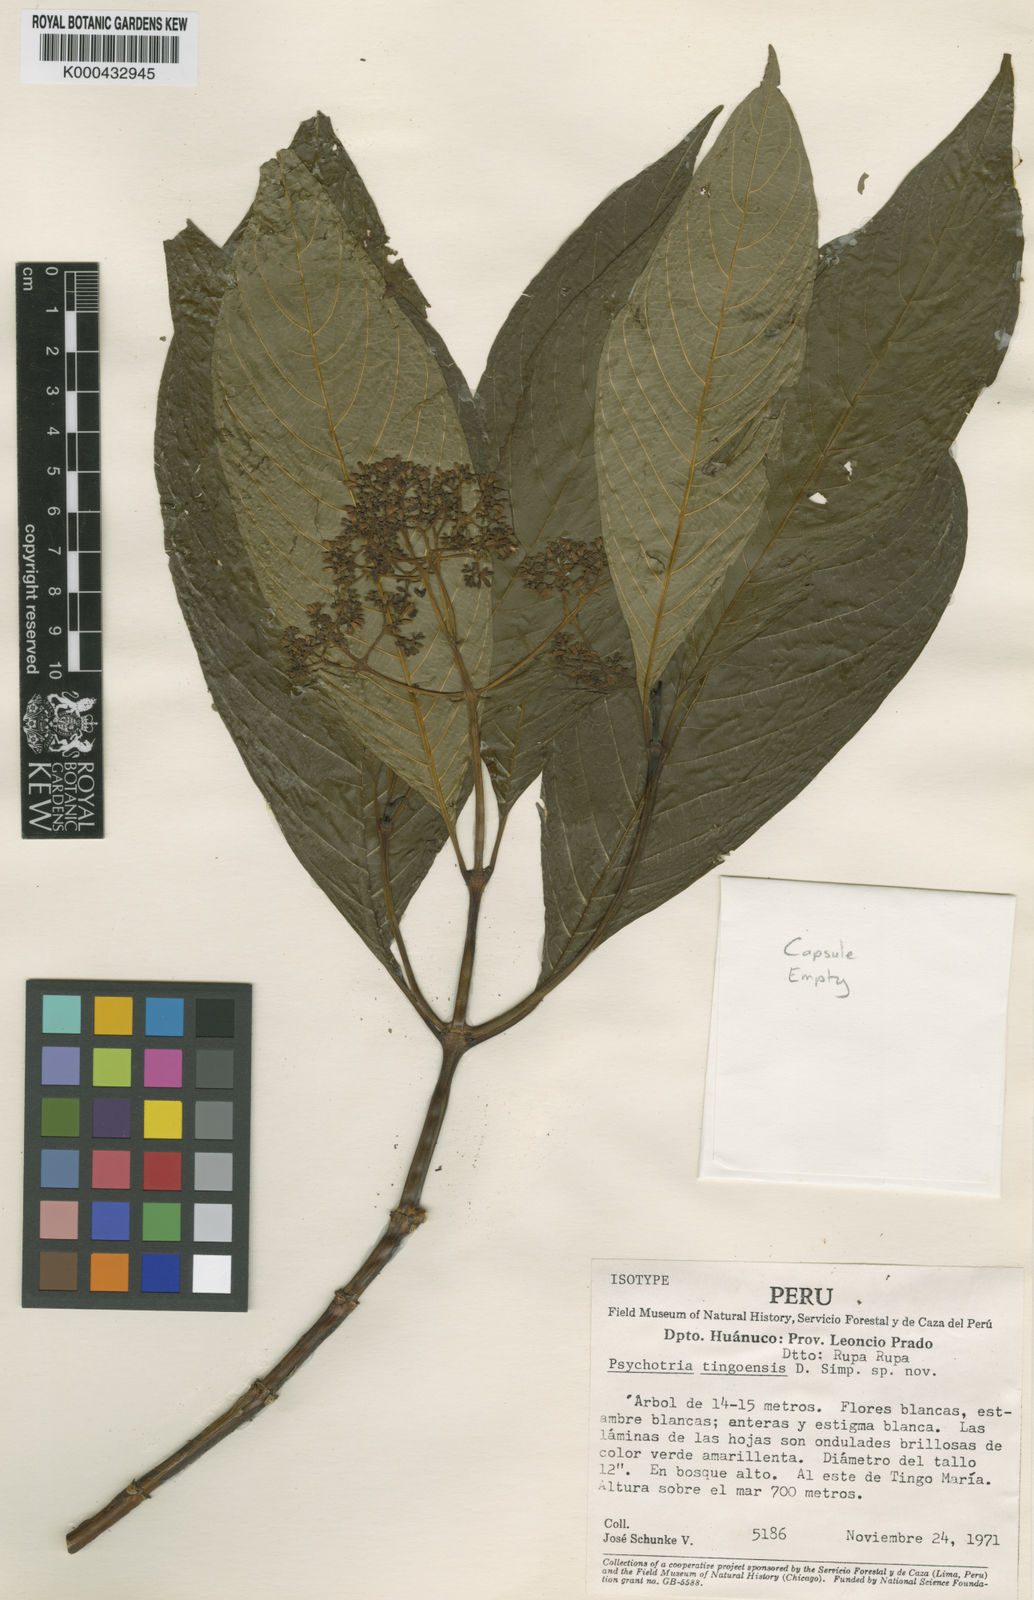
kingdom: Plantae
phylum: Tracheophyta
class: Magnoliopsida
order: Gentianales
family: Rubiaceae
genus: Psychotria
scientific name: Psychotria
